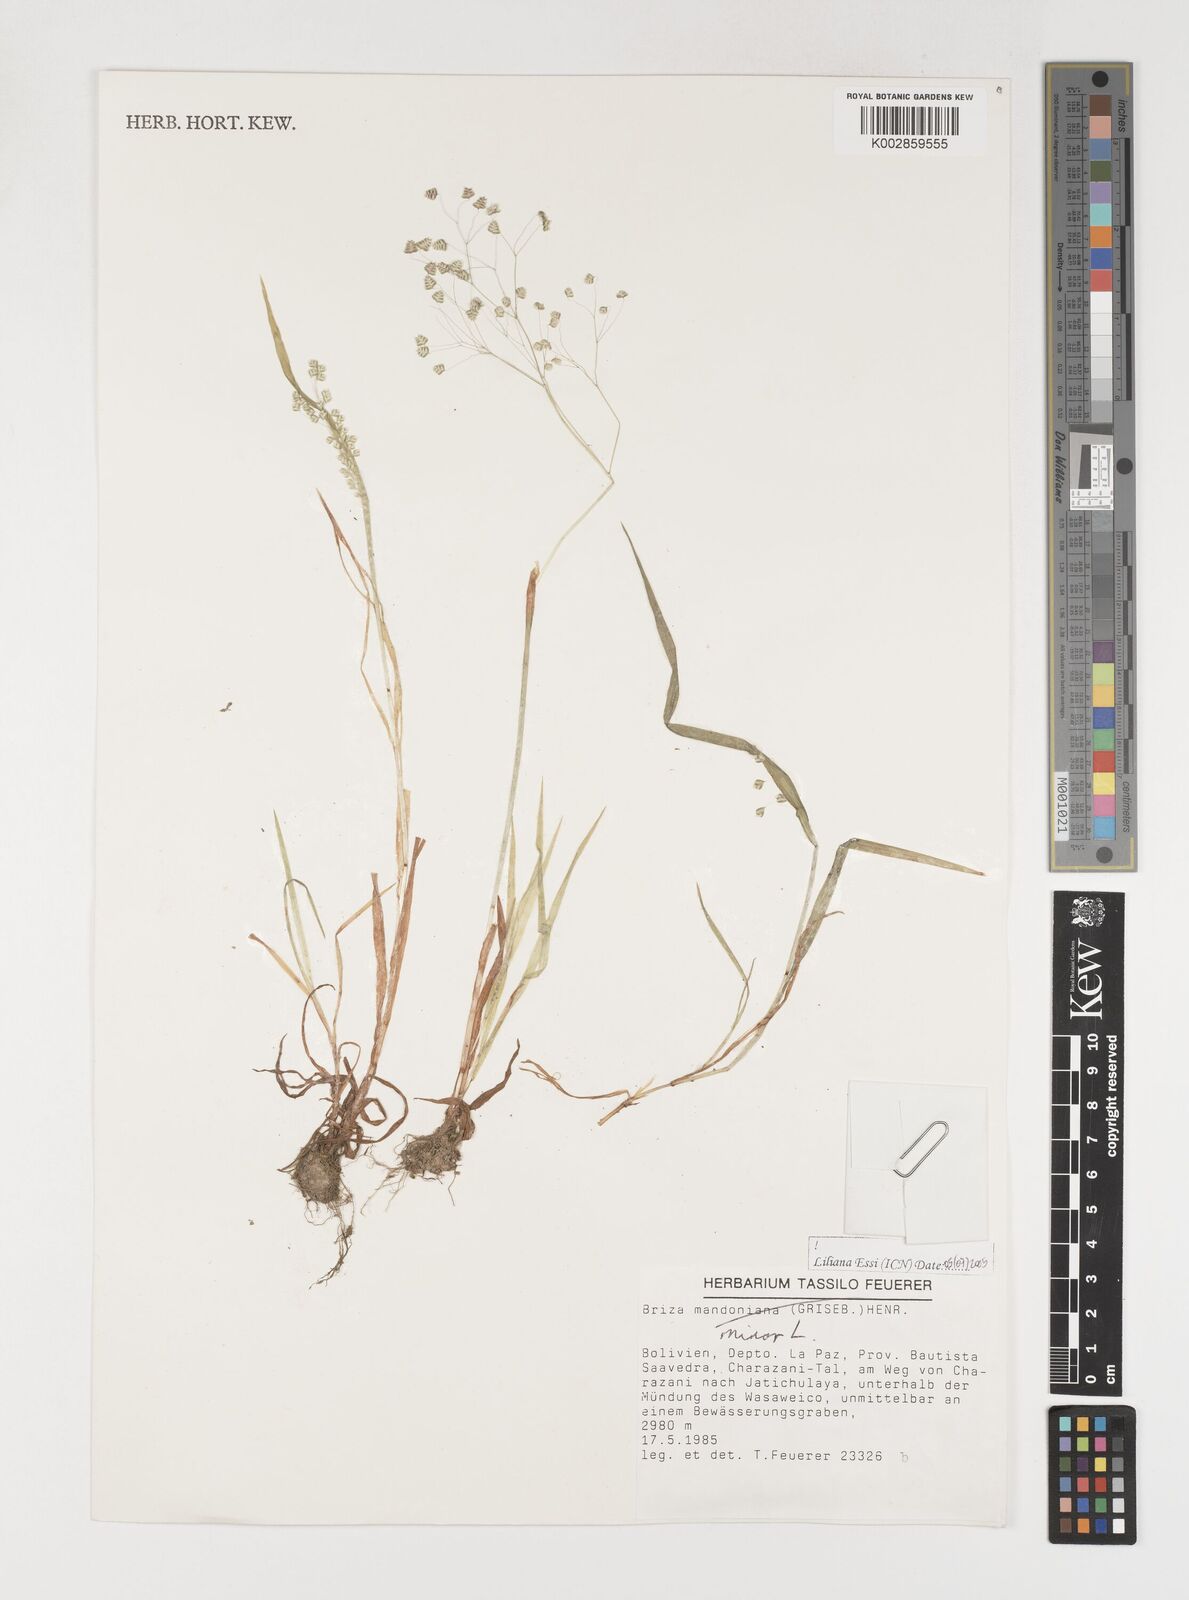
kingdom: Plantae
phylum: Tracheophyta
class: Liliopsida
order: Poales
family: Poaceae
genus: Briza
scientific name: Briza minor
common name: Lesser quaking-grass
